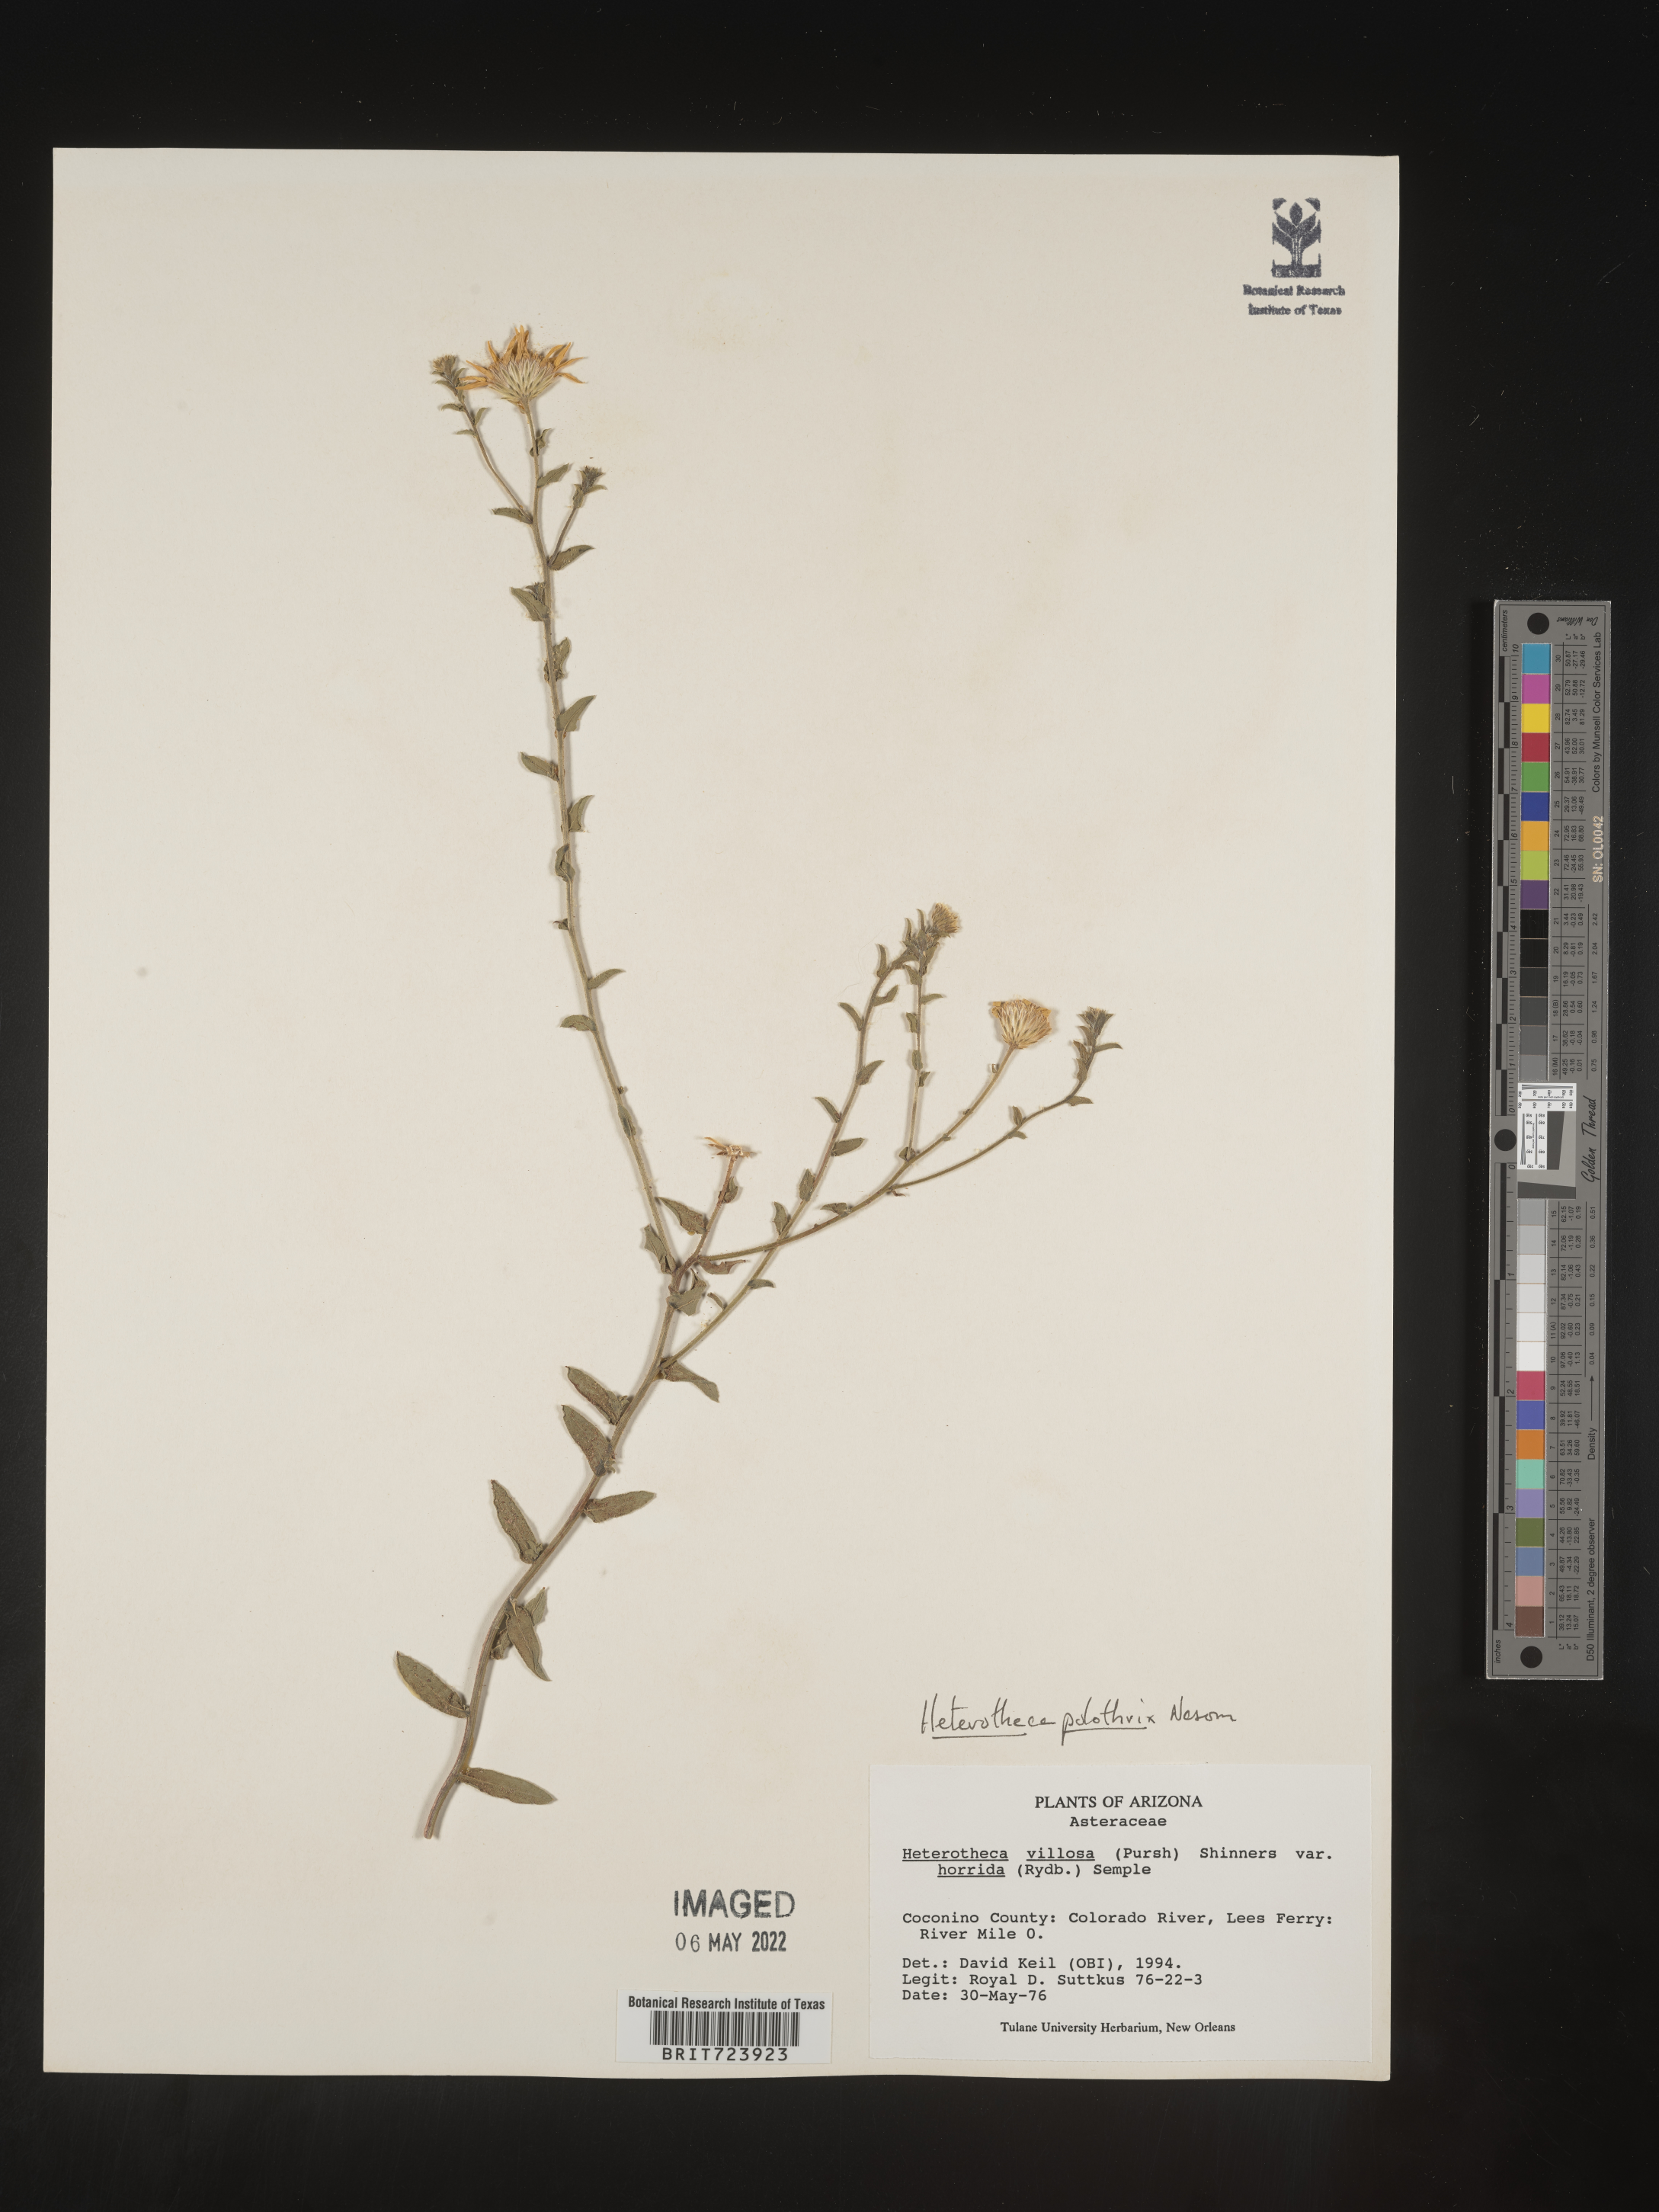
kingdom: Plantae
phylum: Tracheophyta
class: Magnoliopsida
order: Asterales
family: Asteraceae
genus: Heterotheca
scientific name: Heterotheca polothrix
